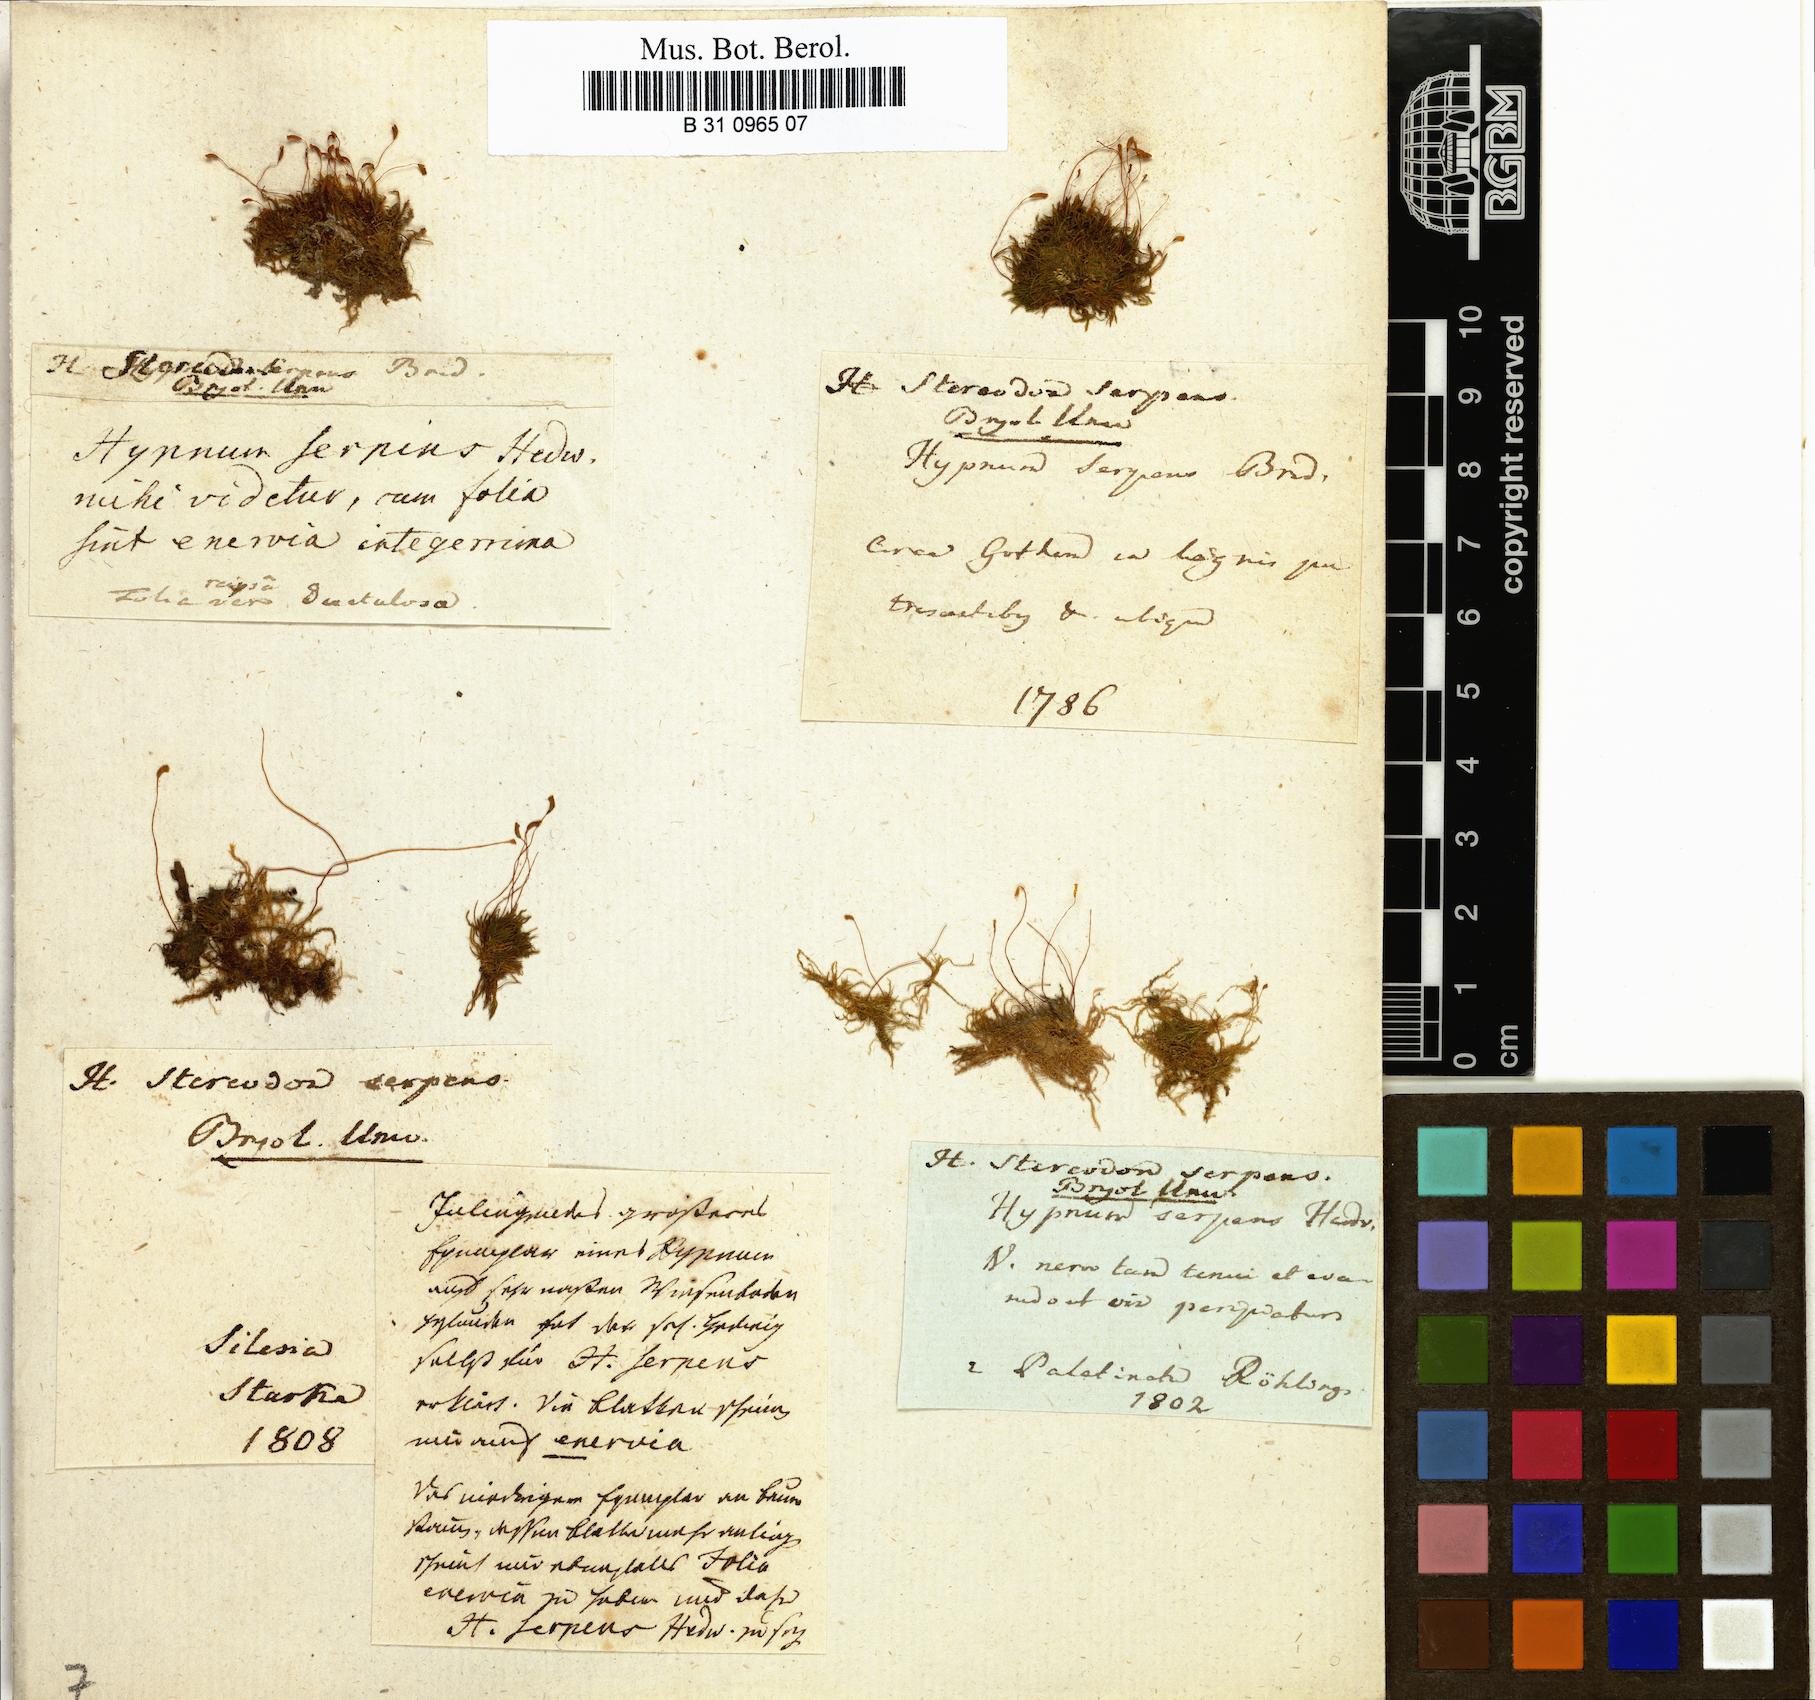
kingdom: Plantae
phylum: Bryophyta
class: Bryopsida
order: Hypnales
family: Amblystegiaceae
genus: Amblystegium
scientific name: Amblystegium serpens
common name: Jurkatzka's feather moss
